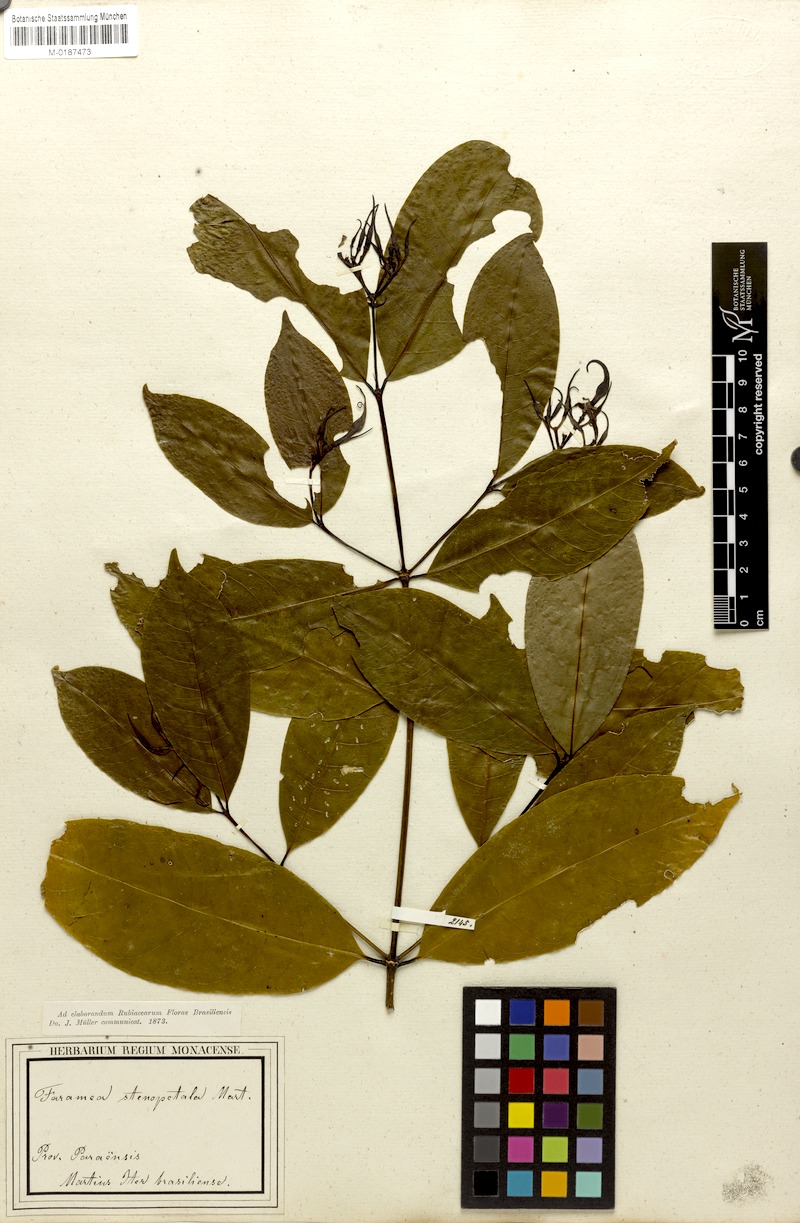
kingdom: Plantae
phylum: Tracheophyta
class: Magnoliopsida
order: Gentianales
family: Rubiaceae
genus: Faramea
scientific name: Faramea stenopetala
